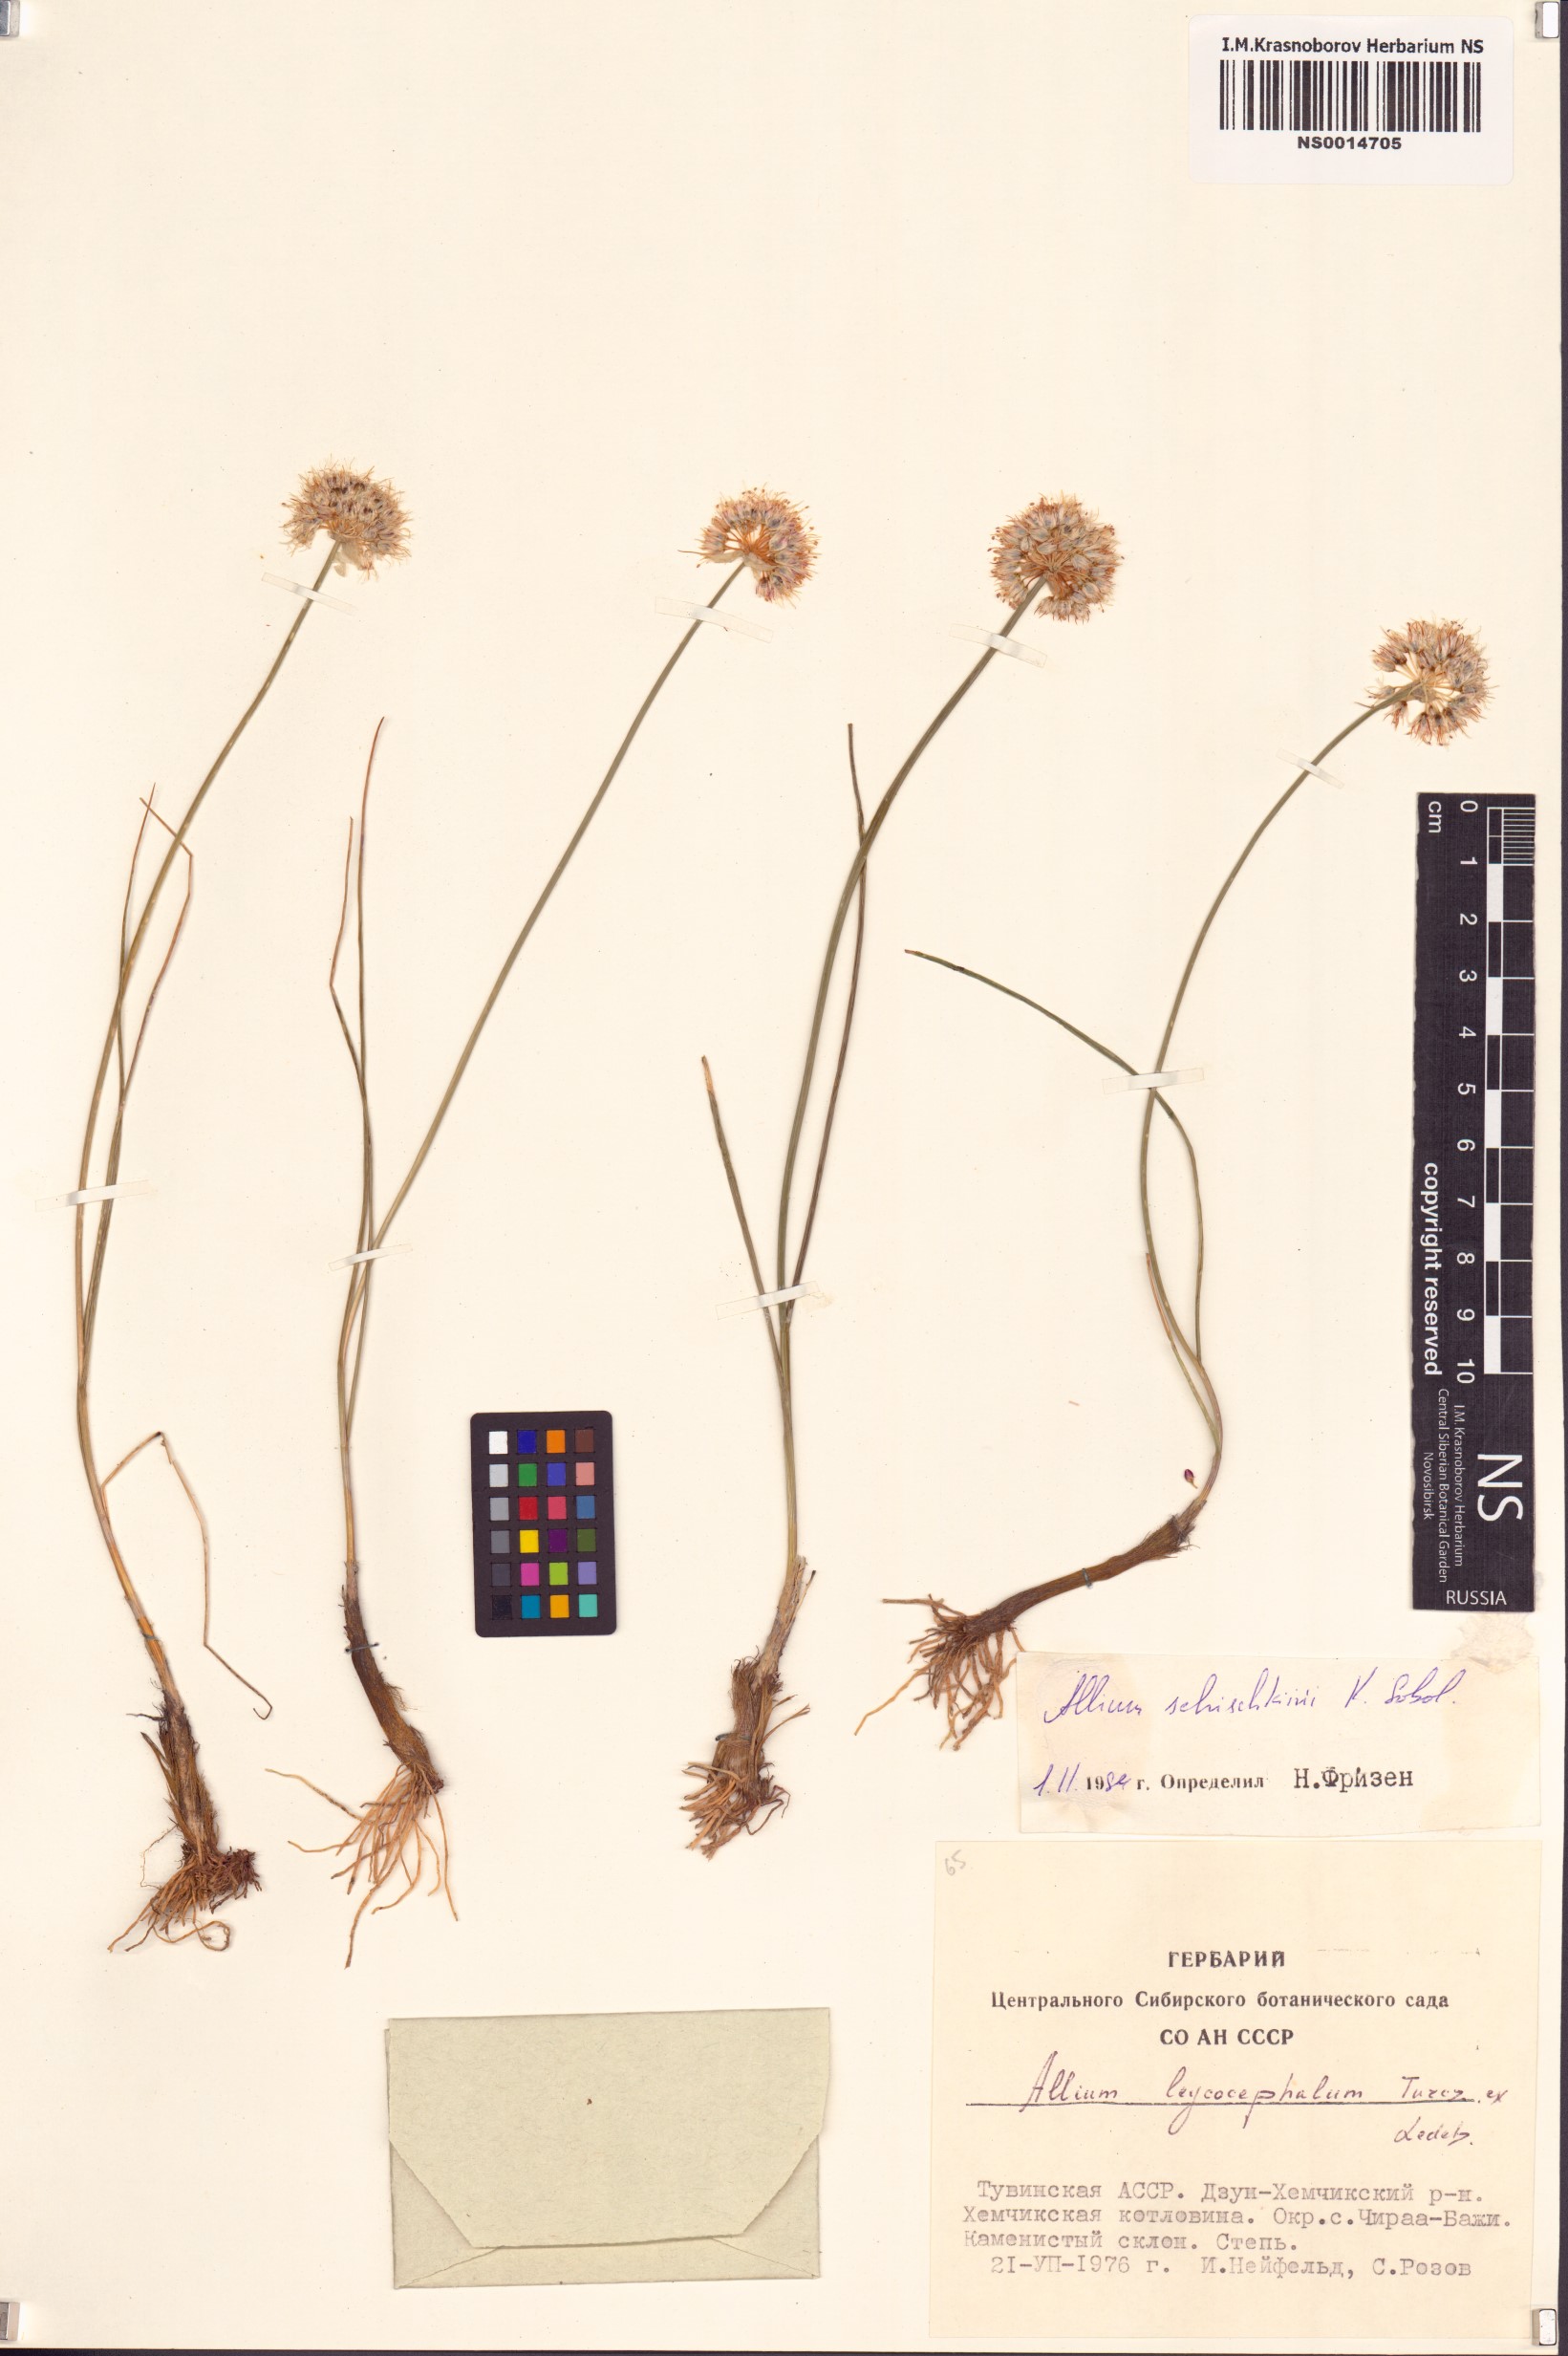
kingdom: Plantae
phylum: Tracheophyta
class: Liliopsida
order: Asparagales
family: Amaryllidaceae
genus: Allium
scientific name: Allium schischkinii
